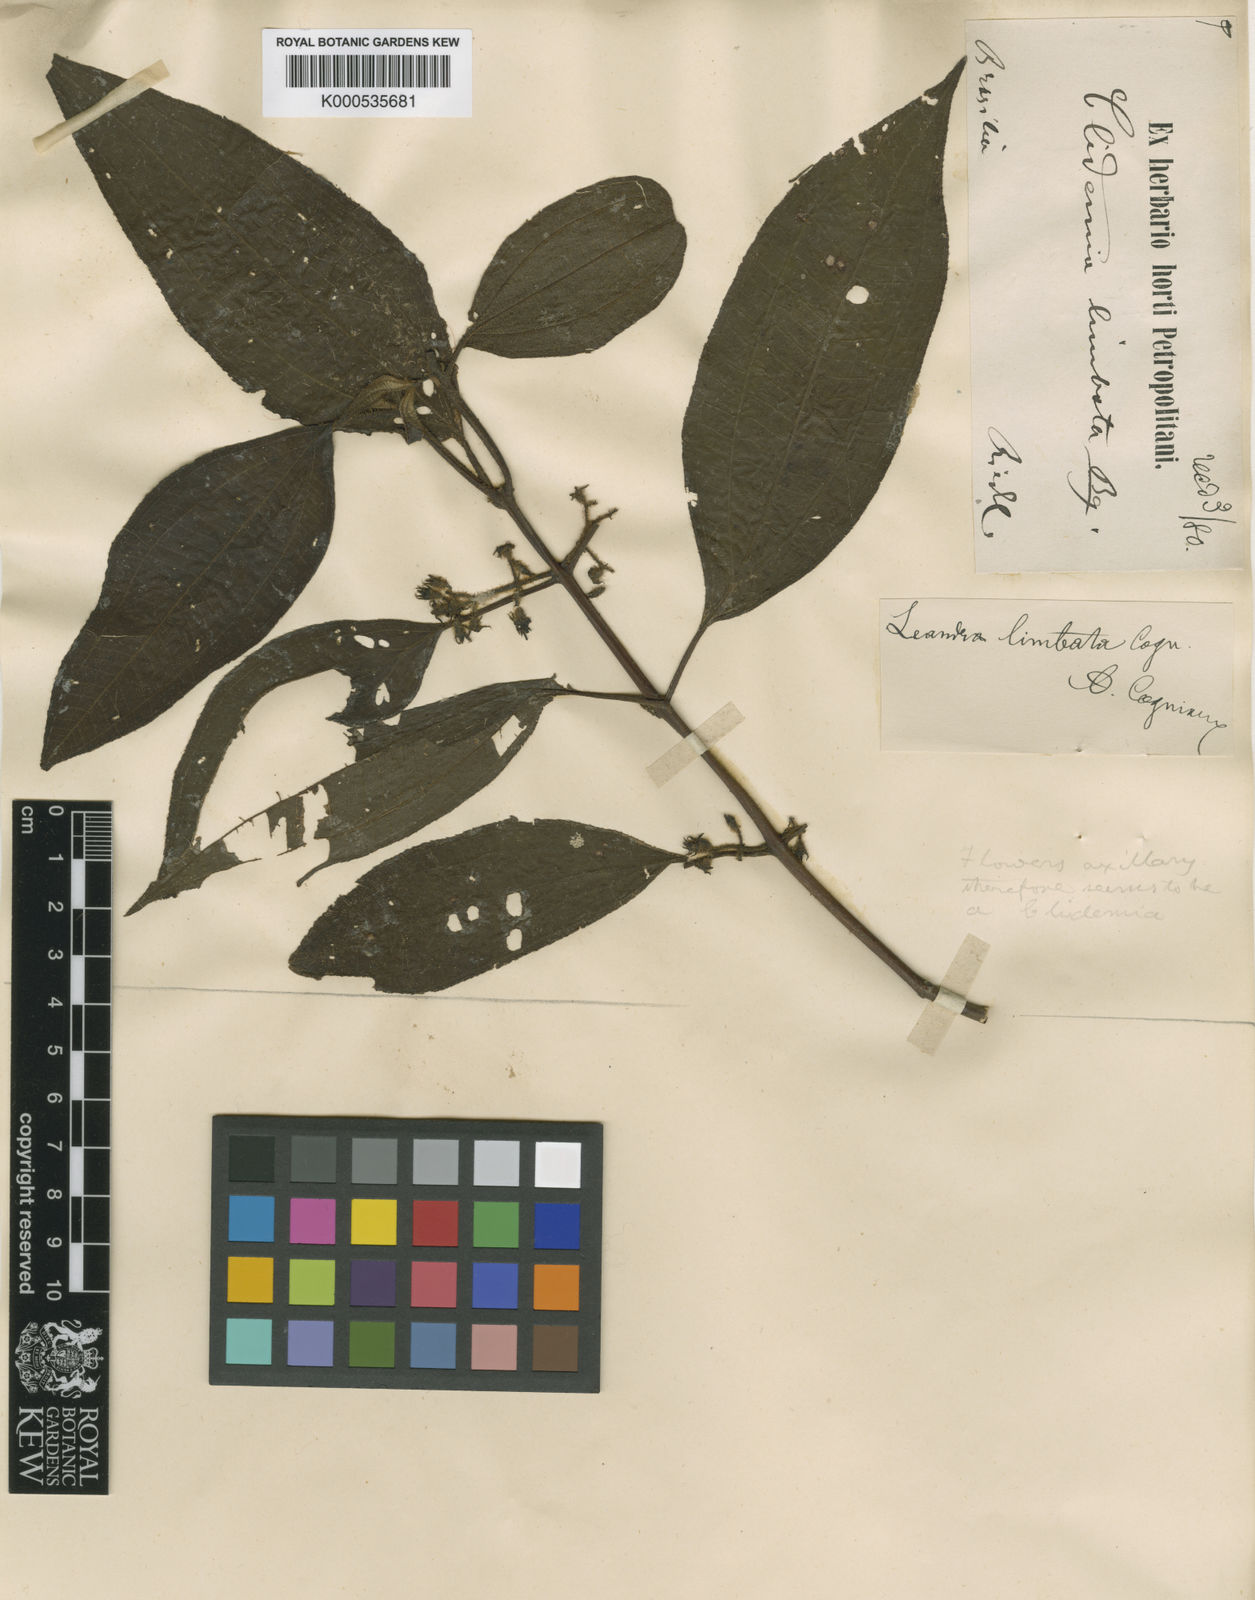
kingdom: Plantae
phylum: Tracheophyta
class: Magnoliopsida
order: Myrtales
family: Melastomataceae
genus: Miconia
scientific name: Miconia limbata
